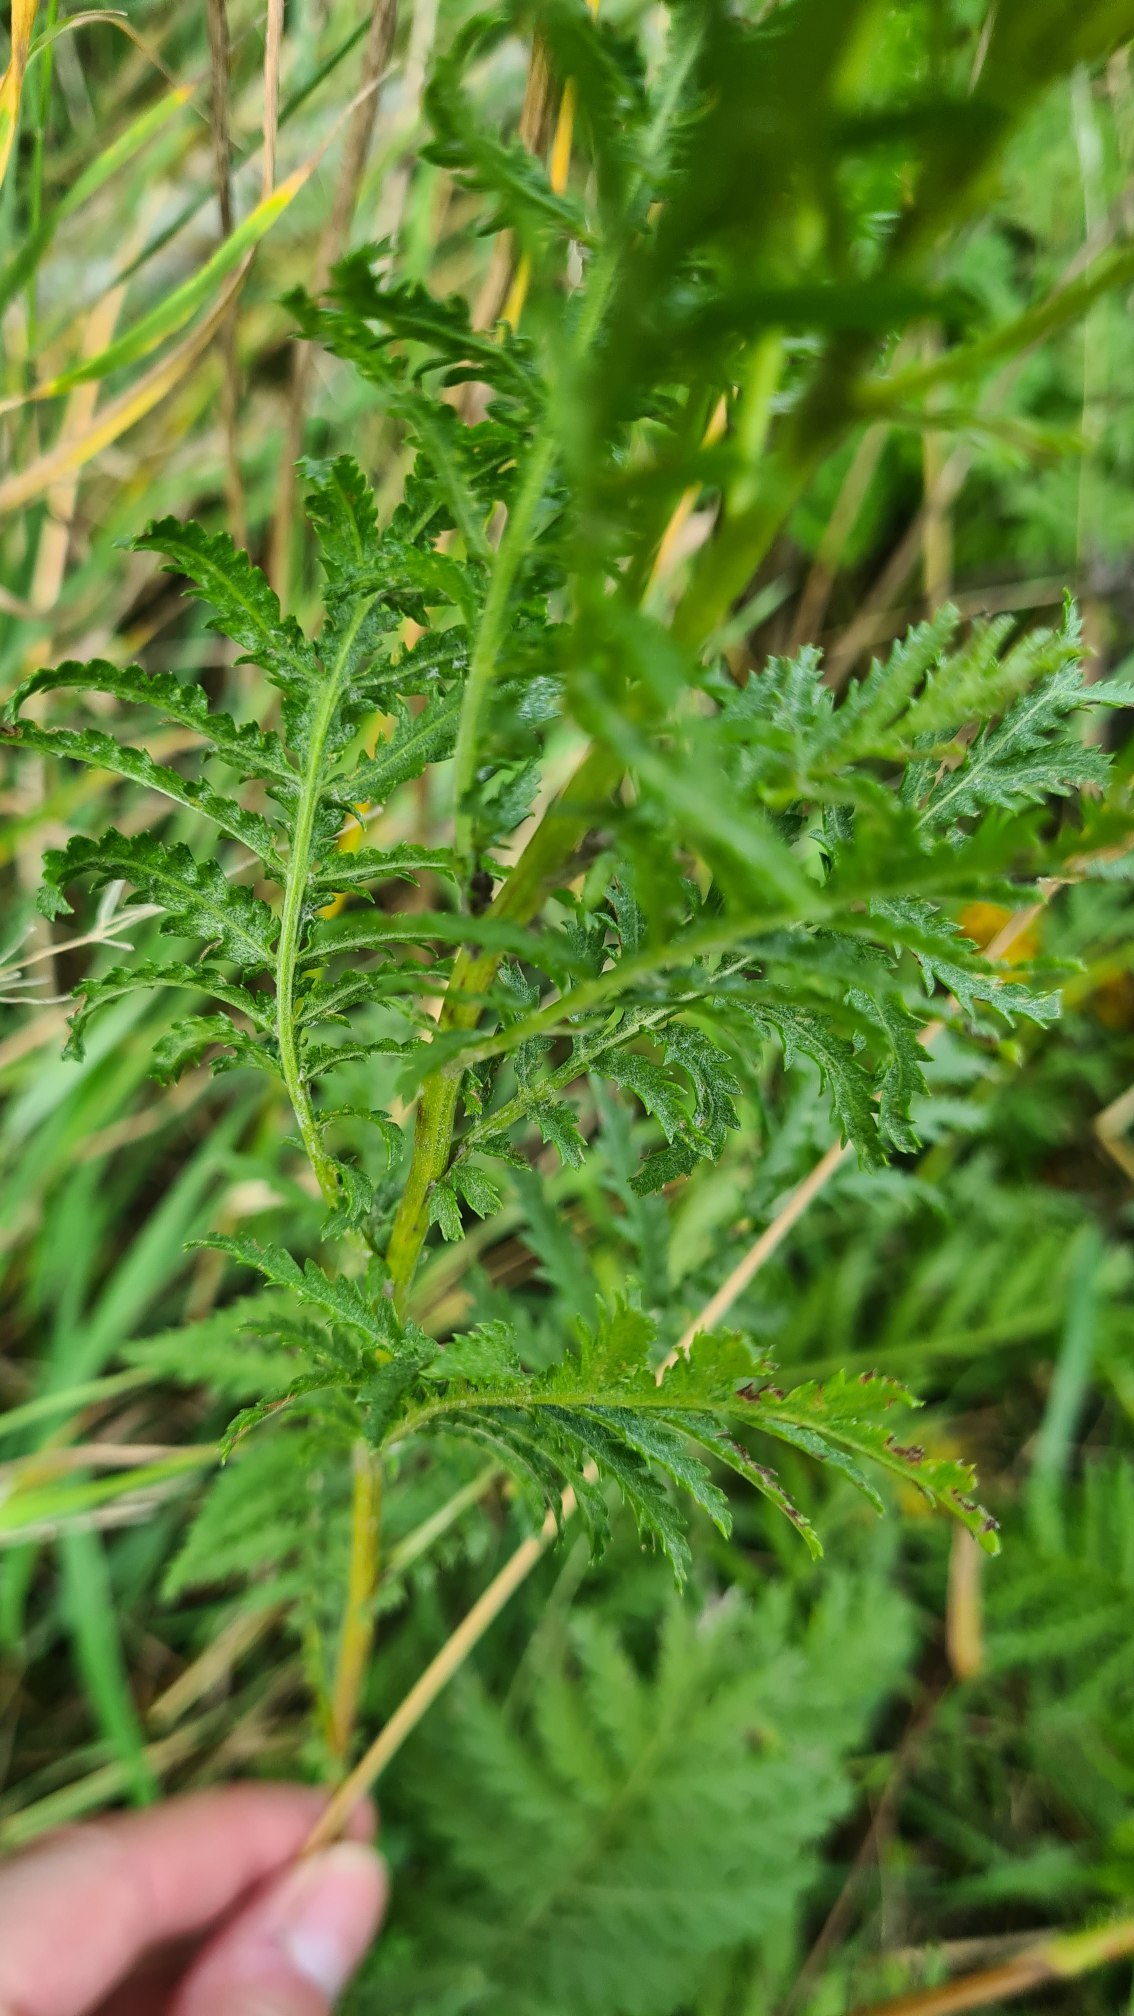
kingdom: Plantae
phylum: Tracheophyta
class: Magnoliopsida
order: Asterales
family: Asteraceae
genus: Tanacetum
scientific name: Tanacetum vulgare
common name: Rejnfan
